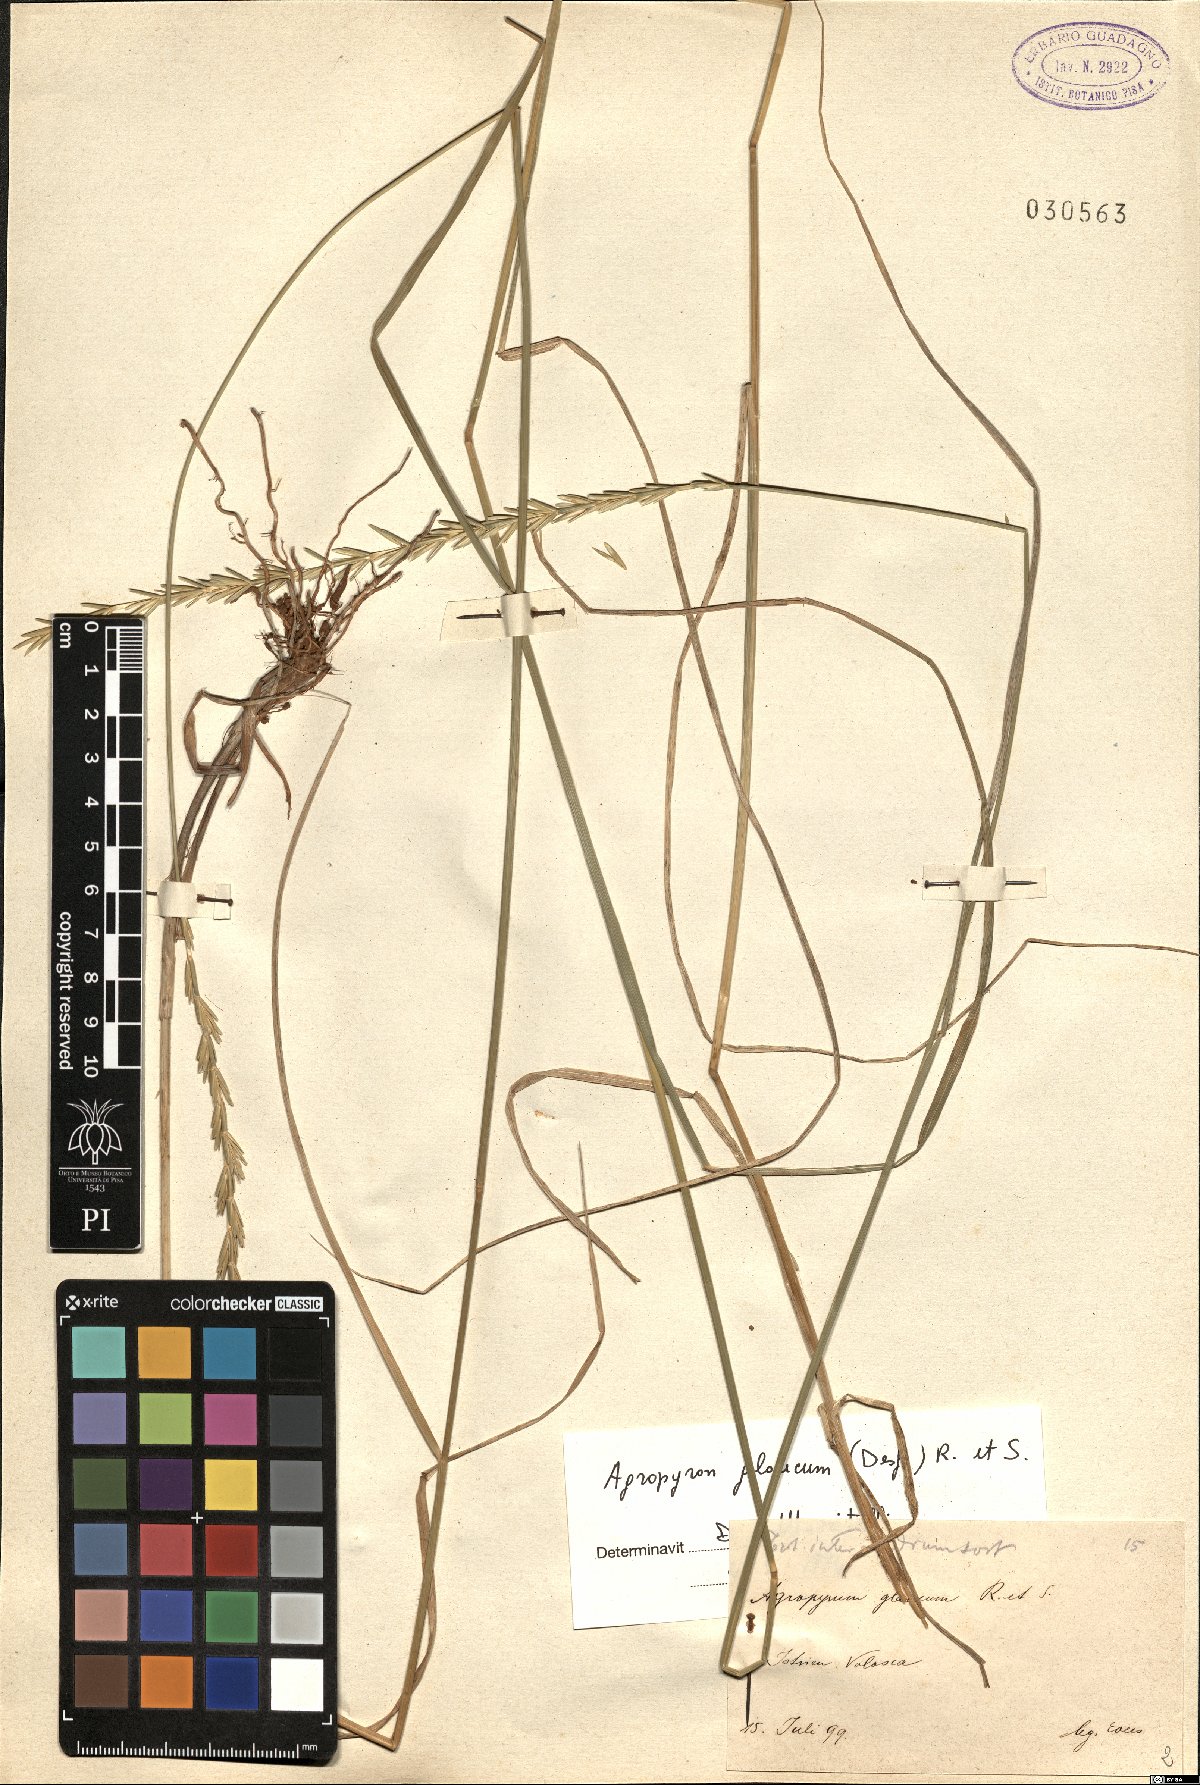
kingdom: Plantae
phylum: Tracheophyta
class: Liliopsida
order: Poales
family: Poaceae
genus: Thinopyrum
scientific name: Thinopyrum intermedium
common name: Intermediate wheatgrass
